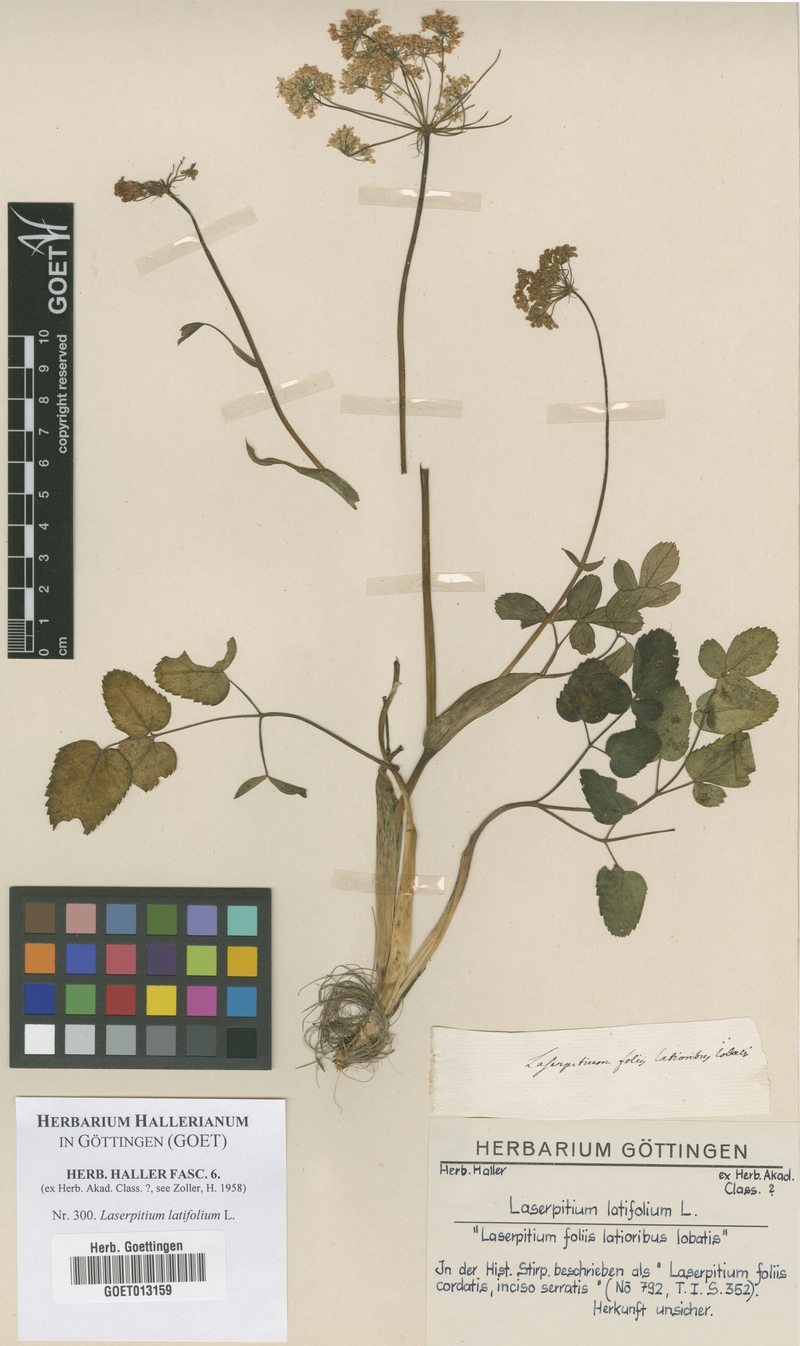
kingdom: Plantae
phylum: Tracheophyta
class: Magnoliopsida
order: Apiales
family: Apiaceae
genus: Laserpitium
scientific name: Laserpitium latifolium
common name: Broadleaf sermountain
